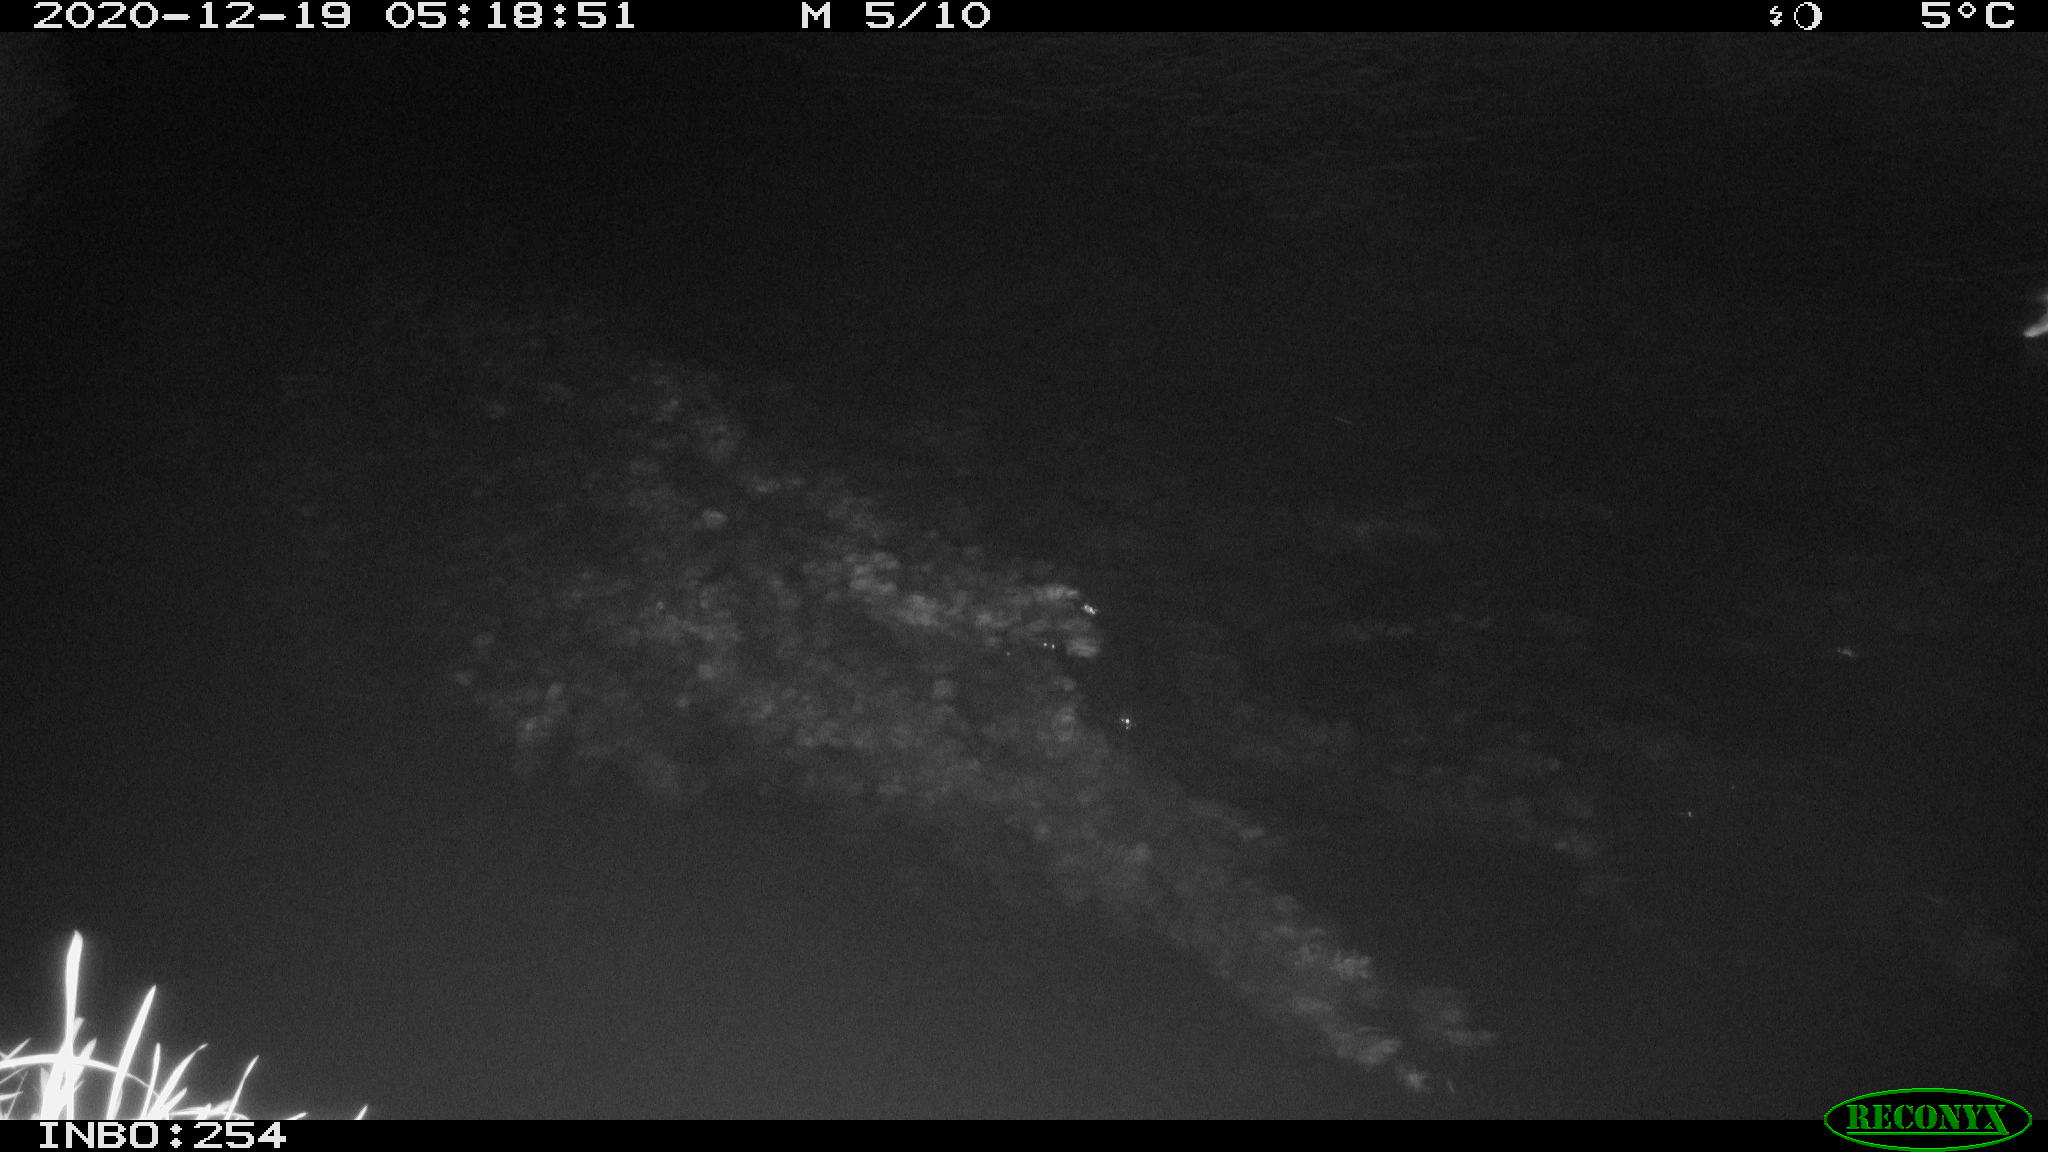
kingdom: Animalia
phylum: Chordata
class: Aves
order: Anseriformes
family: Anatidae
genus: Anas
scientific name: Anas platyrhynchos
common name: Mallard
